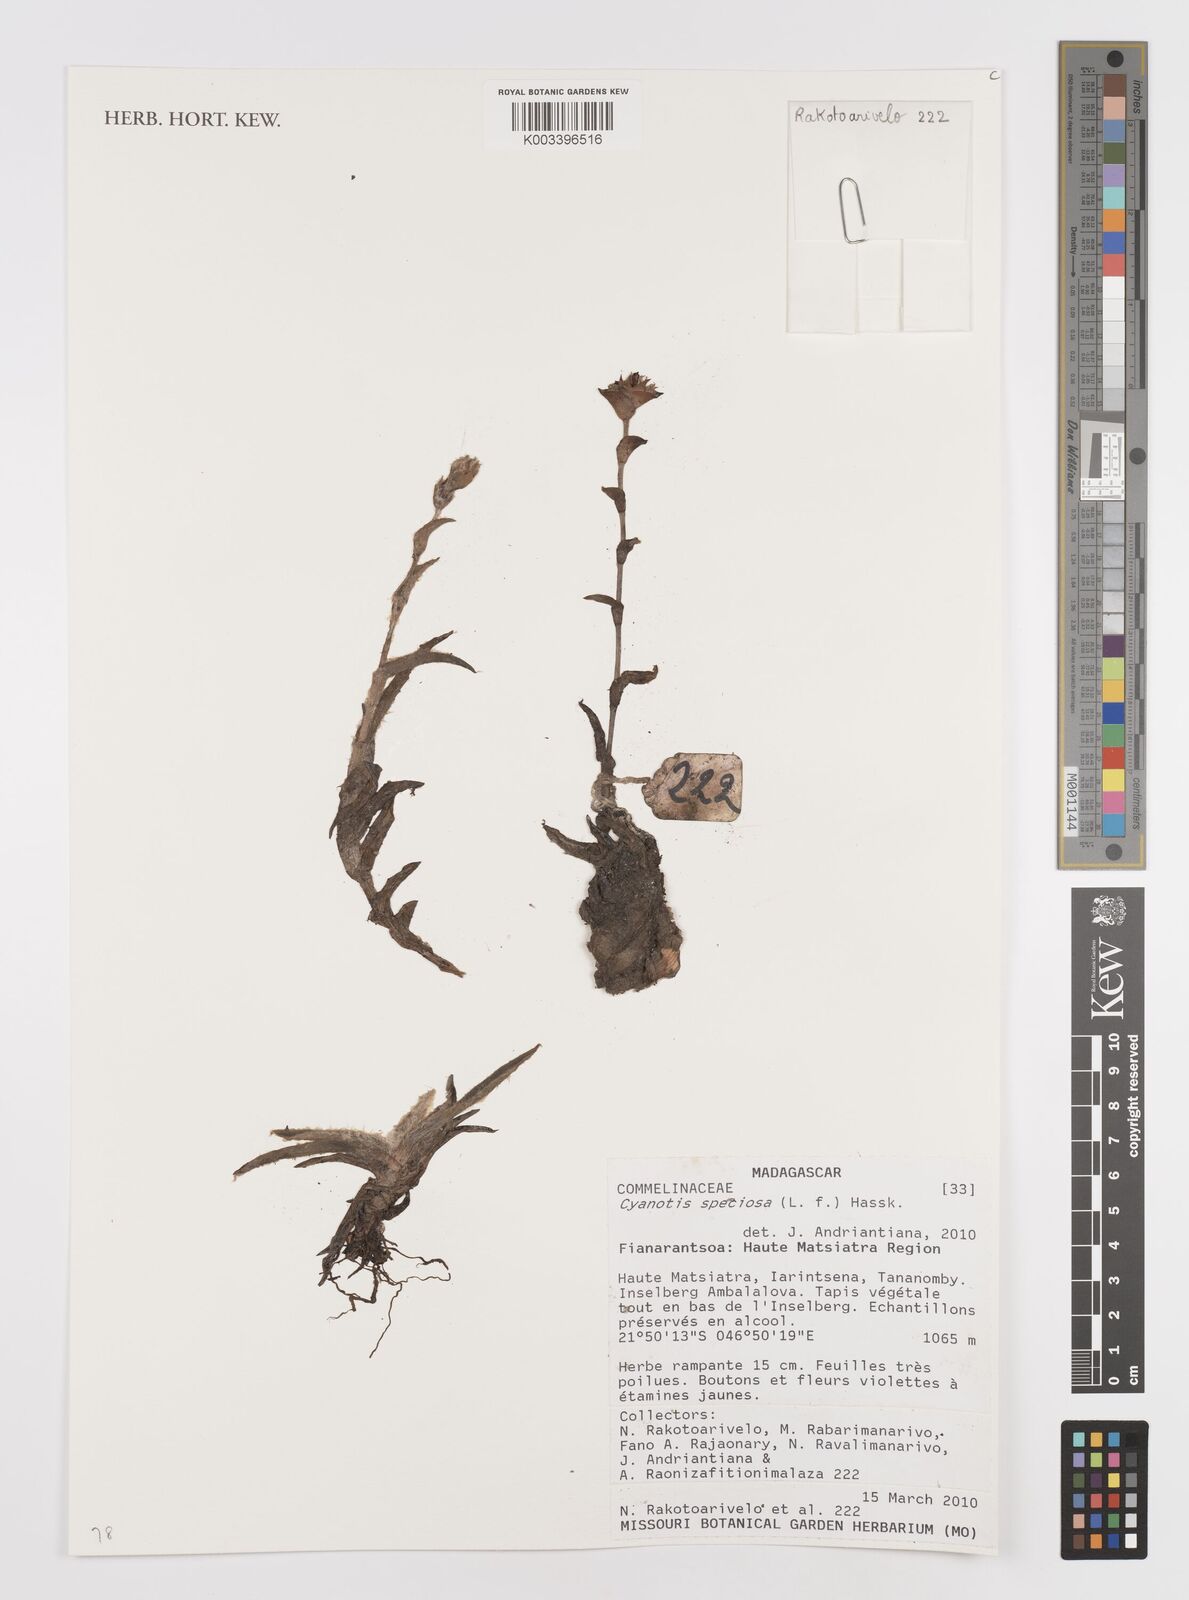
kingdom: Plantae
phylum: Tracheophyta
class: Liliopsida
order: Commelinales
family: Commelinaceae
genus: Cyanotis
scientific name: Cyanotis speciosa
